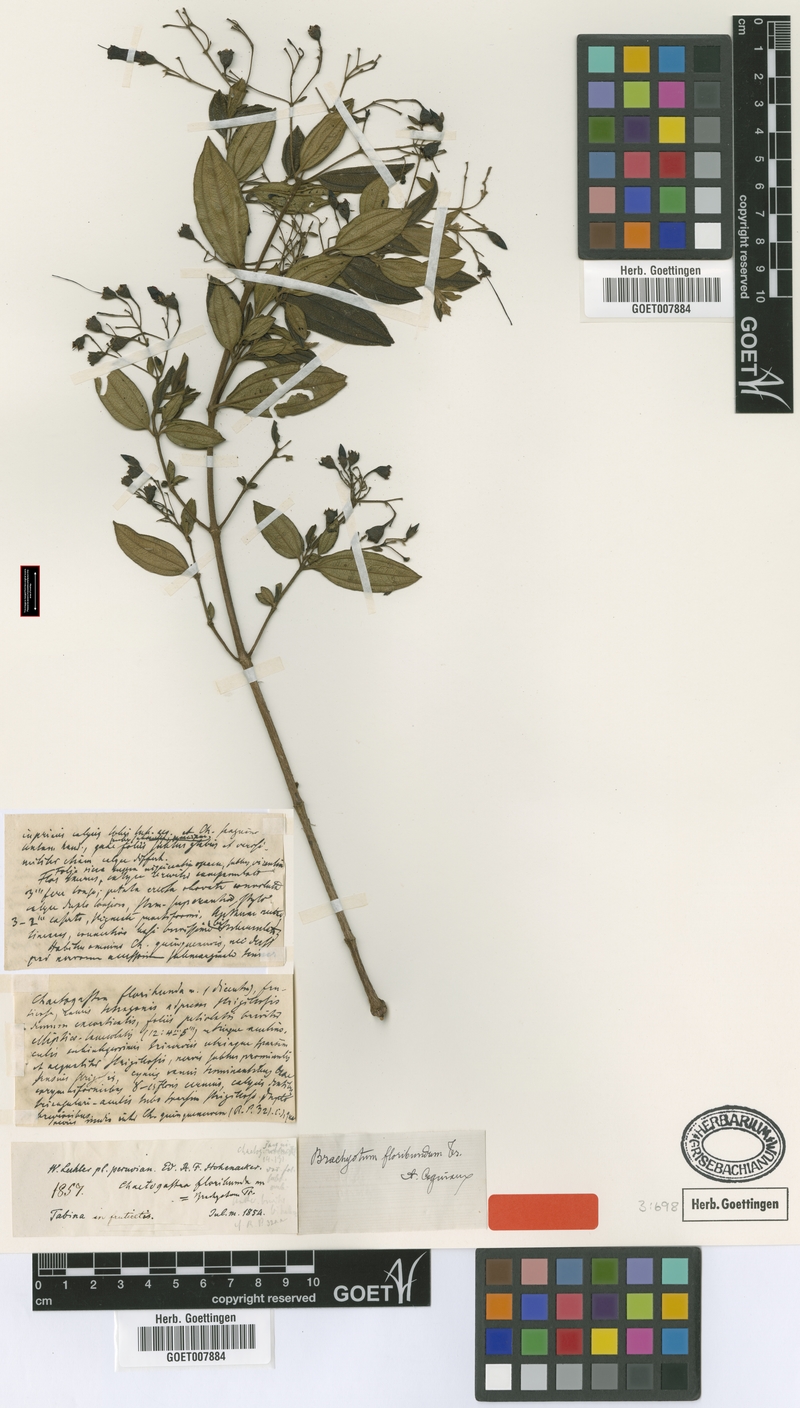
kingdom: Plantae
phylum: Tracheophyta
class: Magnoliopsida
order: Myrtales
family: Melastomataceae
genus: Brachyotum
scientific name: Brachyotum sanguinolentum
